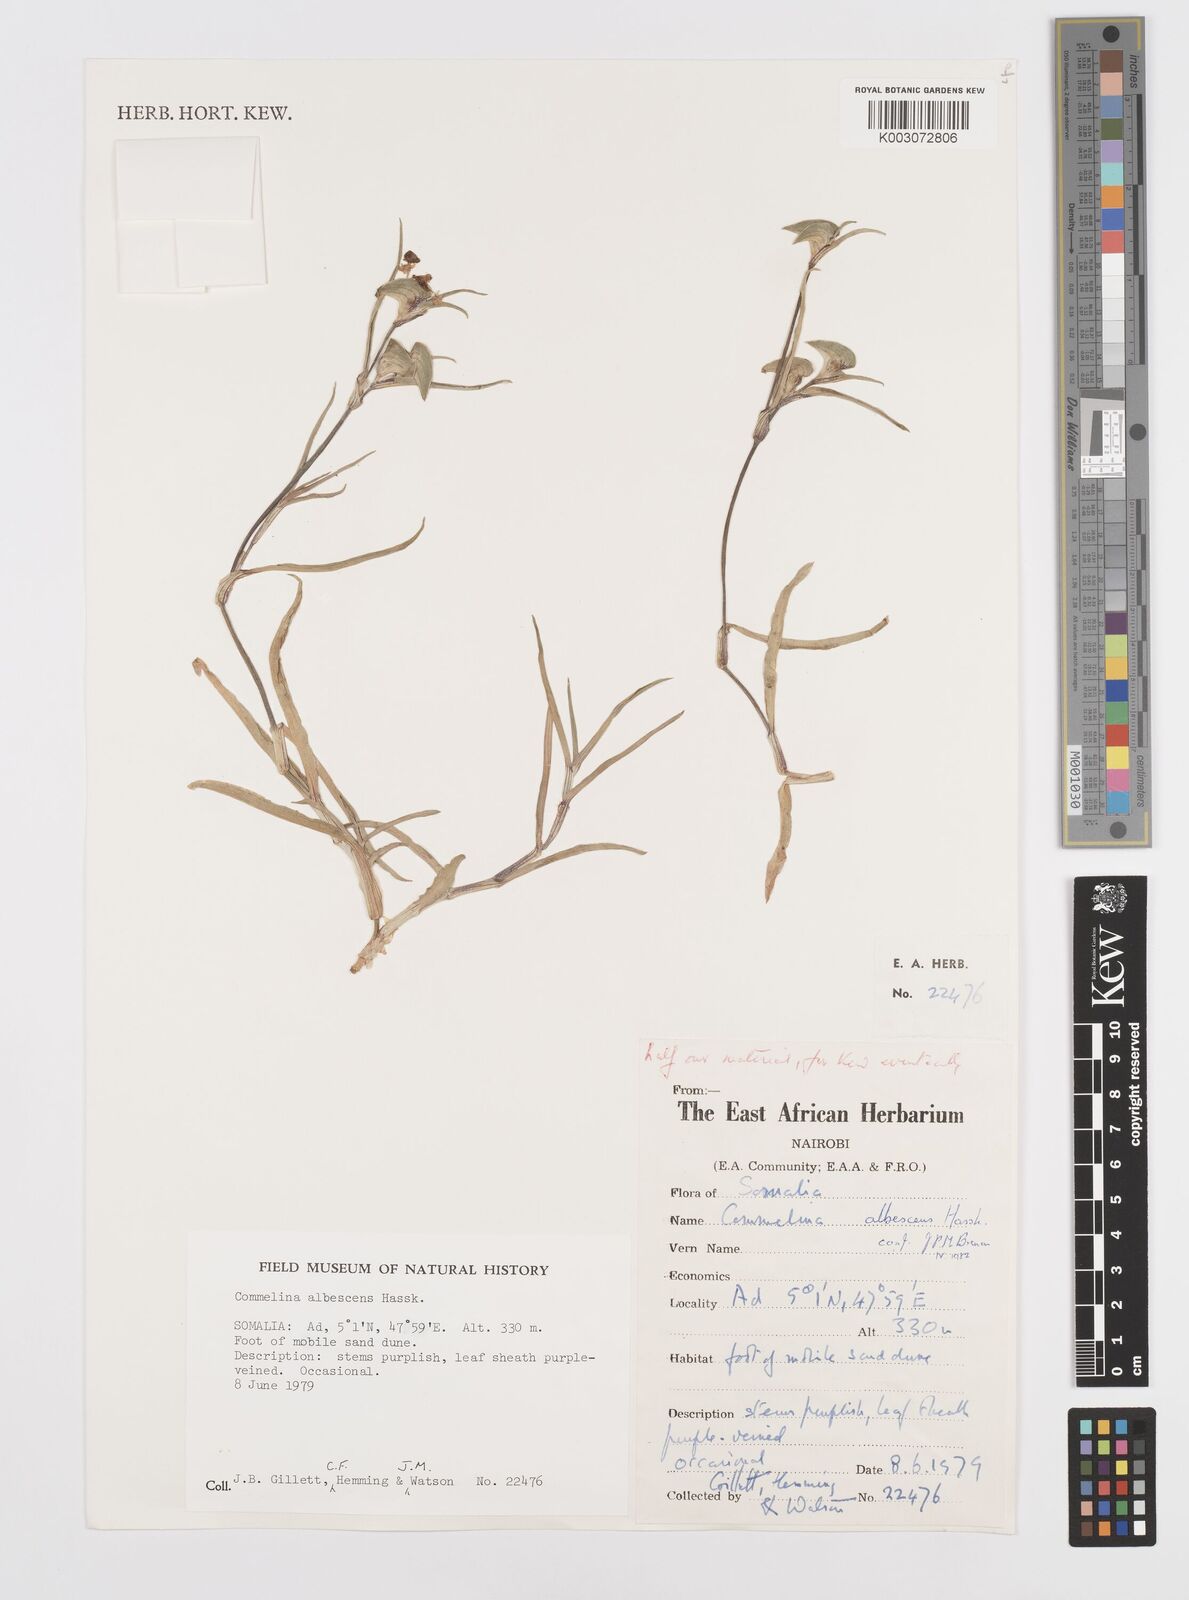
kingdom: Plantae
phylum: Tracheophyta
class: Liliopsida
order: Commelinales
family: Commelinaceae
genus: Commelina
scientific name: Commelina albescens
